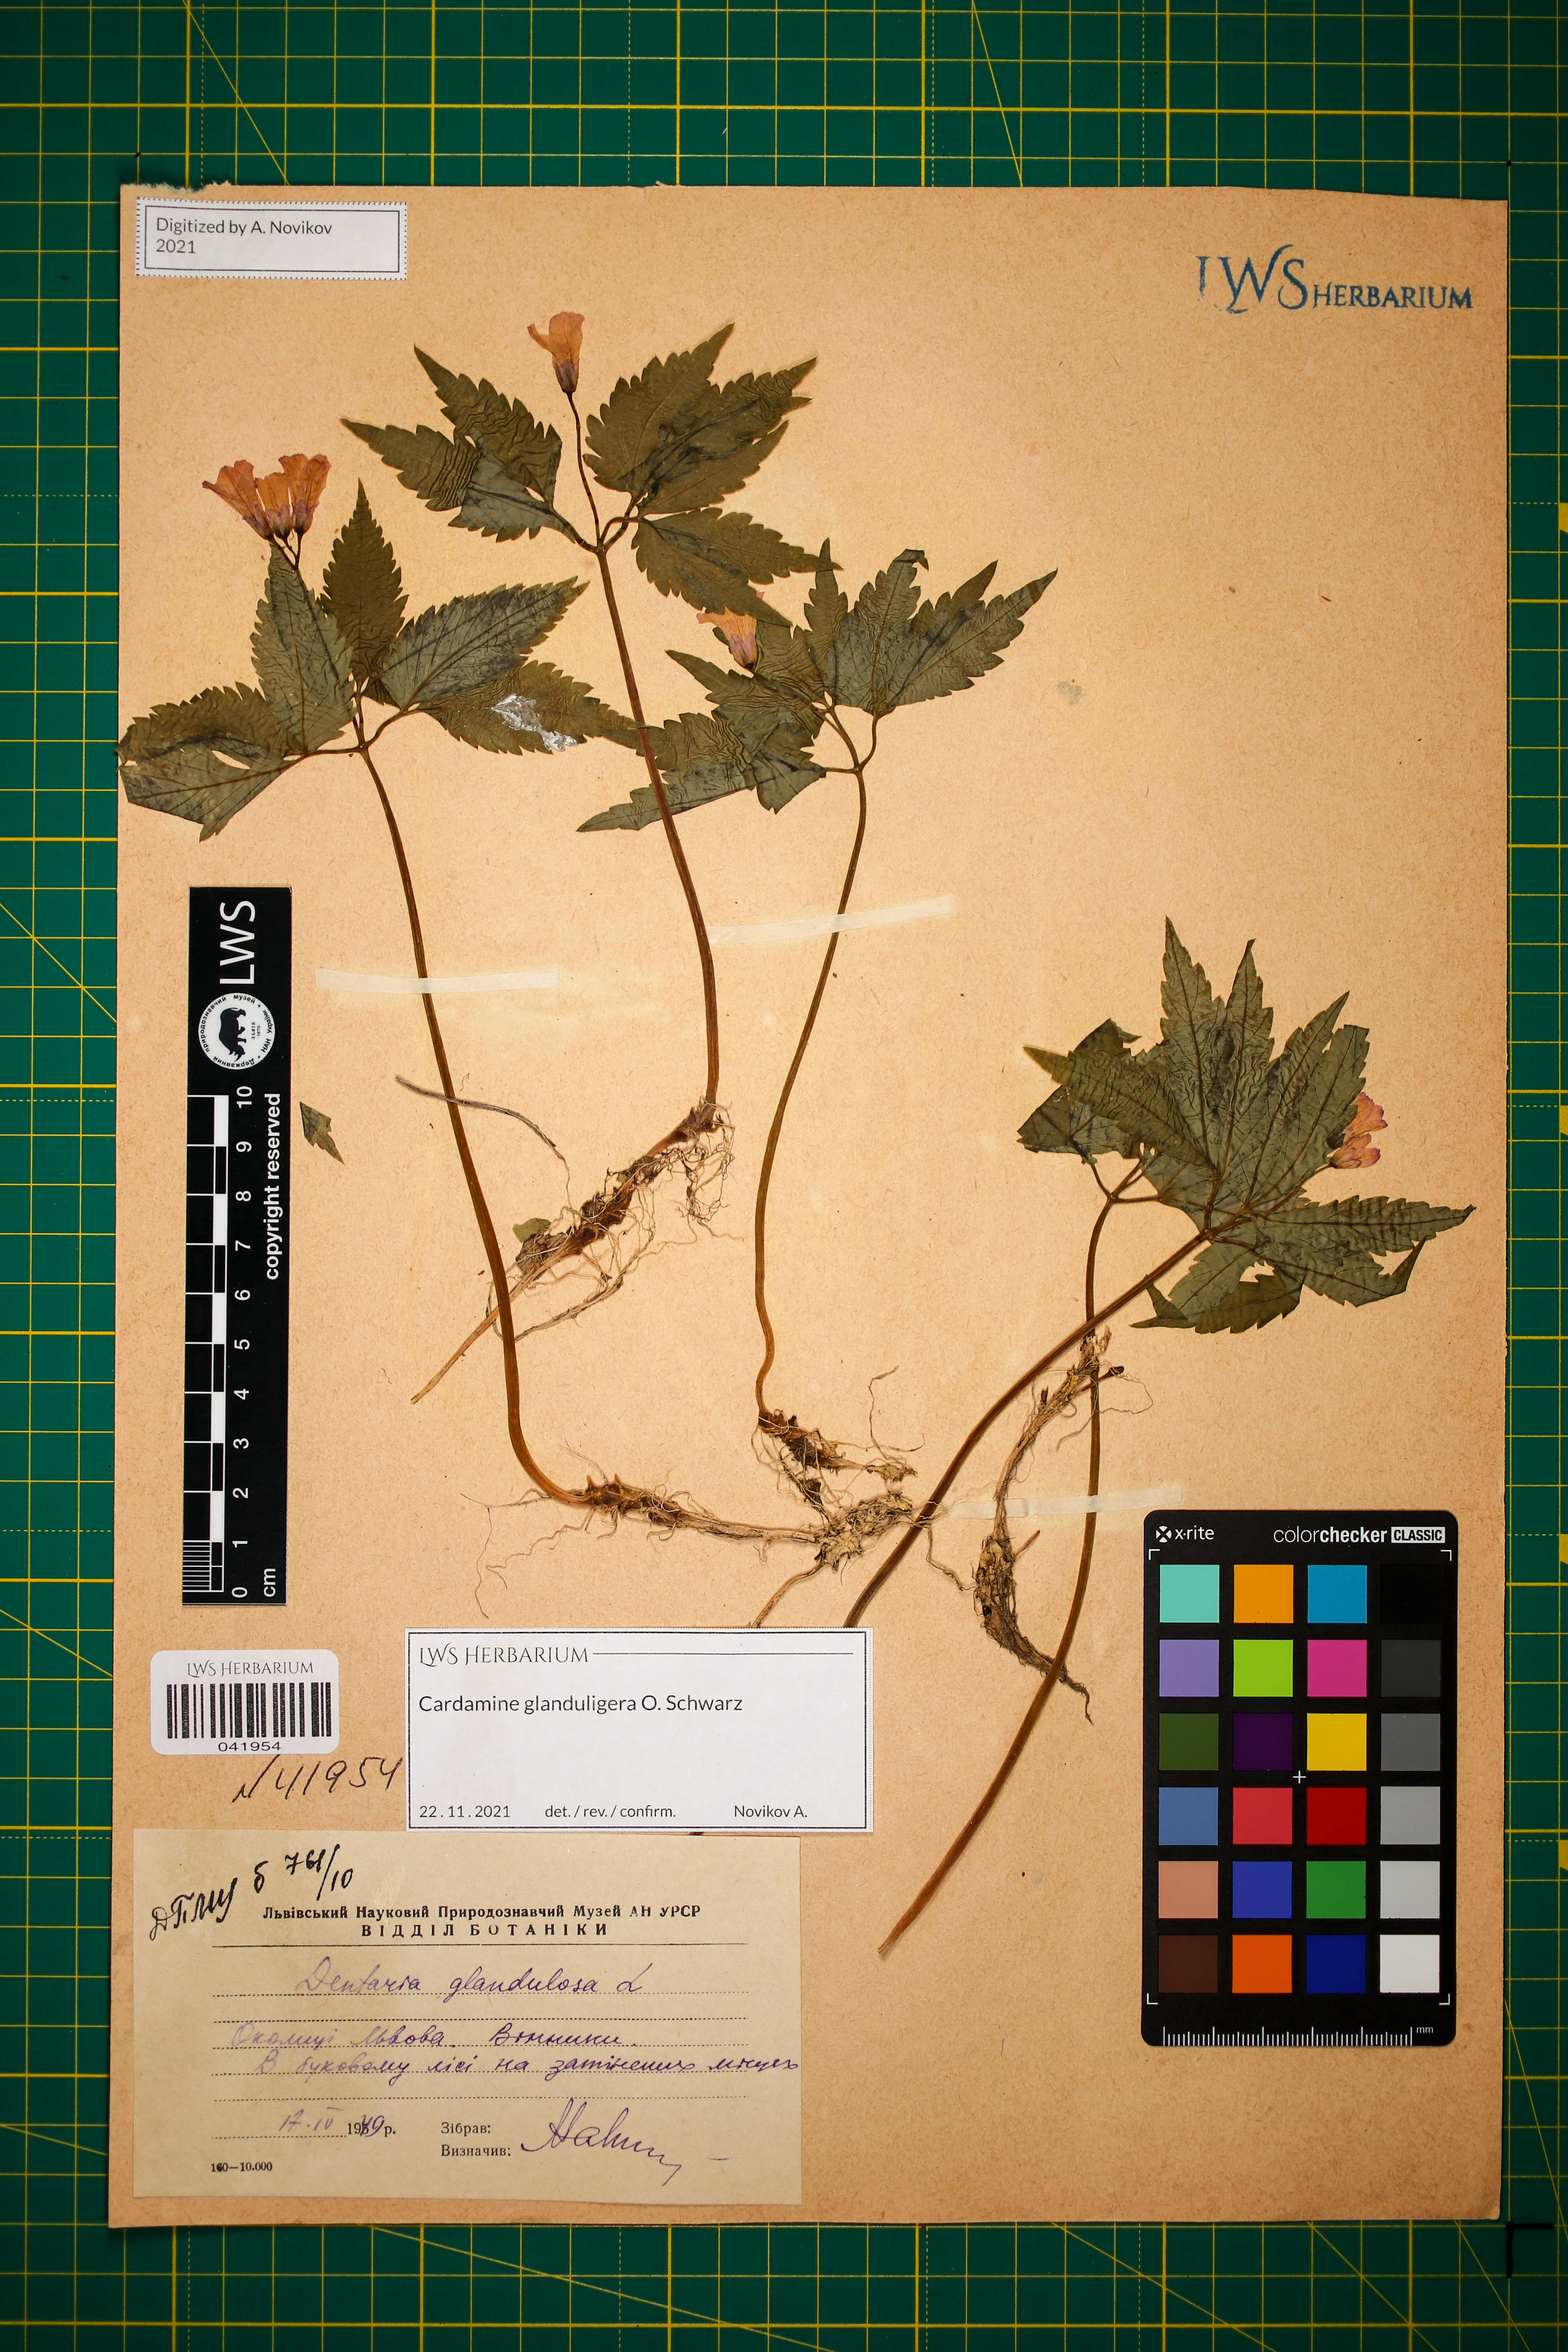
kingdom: Plantae
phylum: Tracheophyta
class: Magnoliopsida
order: Brassicales
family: Brassicaceae
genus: Cardamine
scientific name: Cardamine glanduligera
